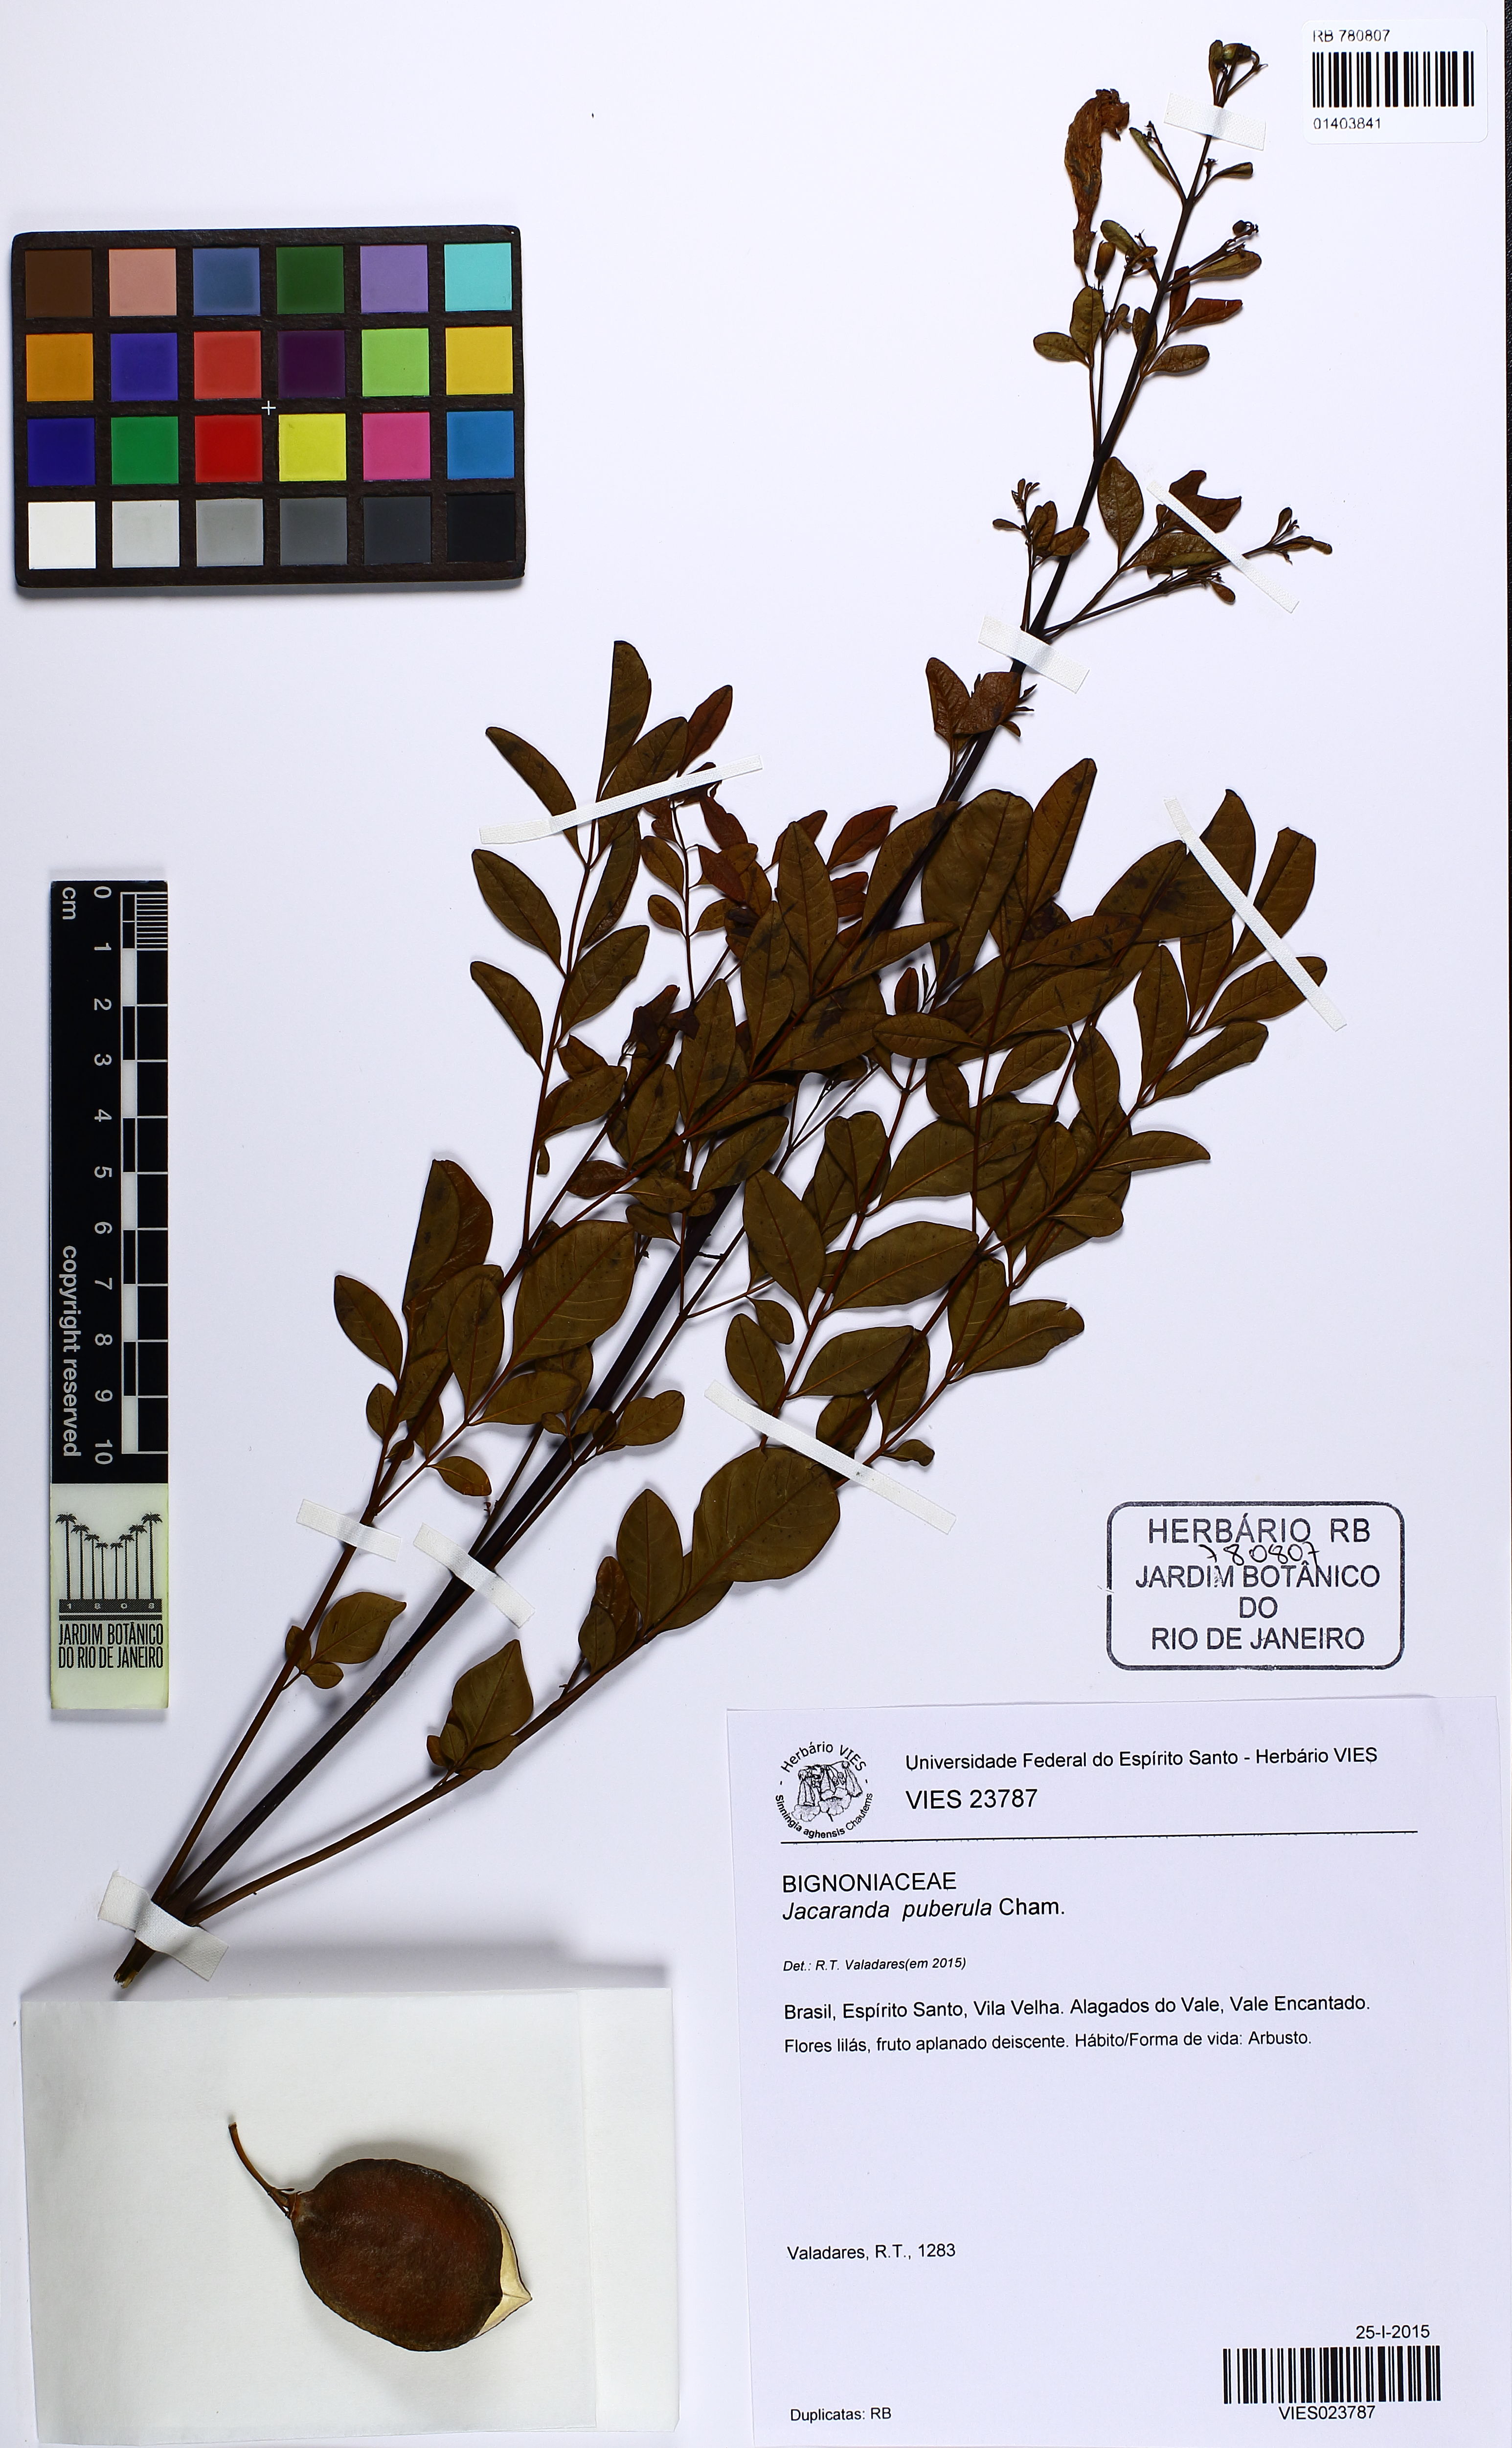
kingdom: Plantae
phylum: Tracheophyta
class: Magnoliopsida
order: Sapindales
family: Sapindaceae
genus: Matayba
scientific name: Matayba guianensis
